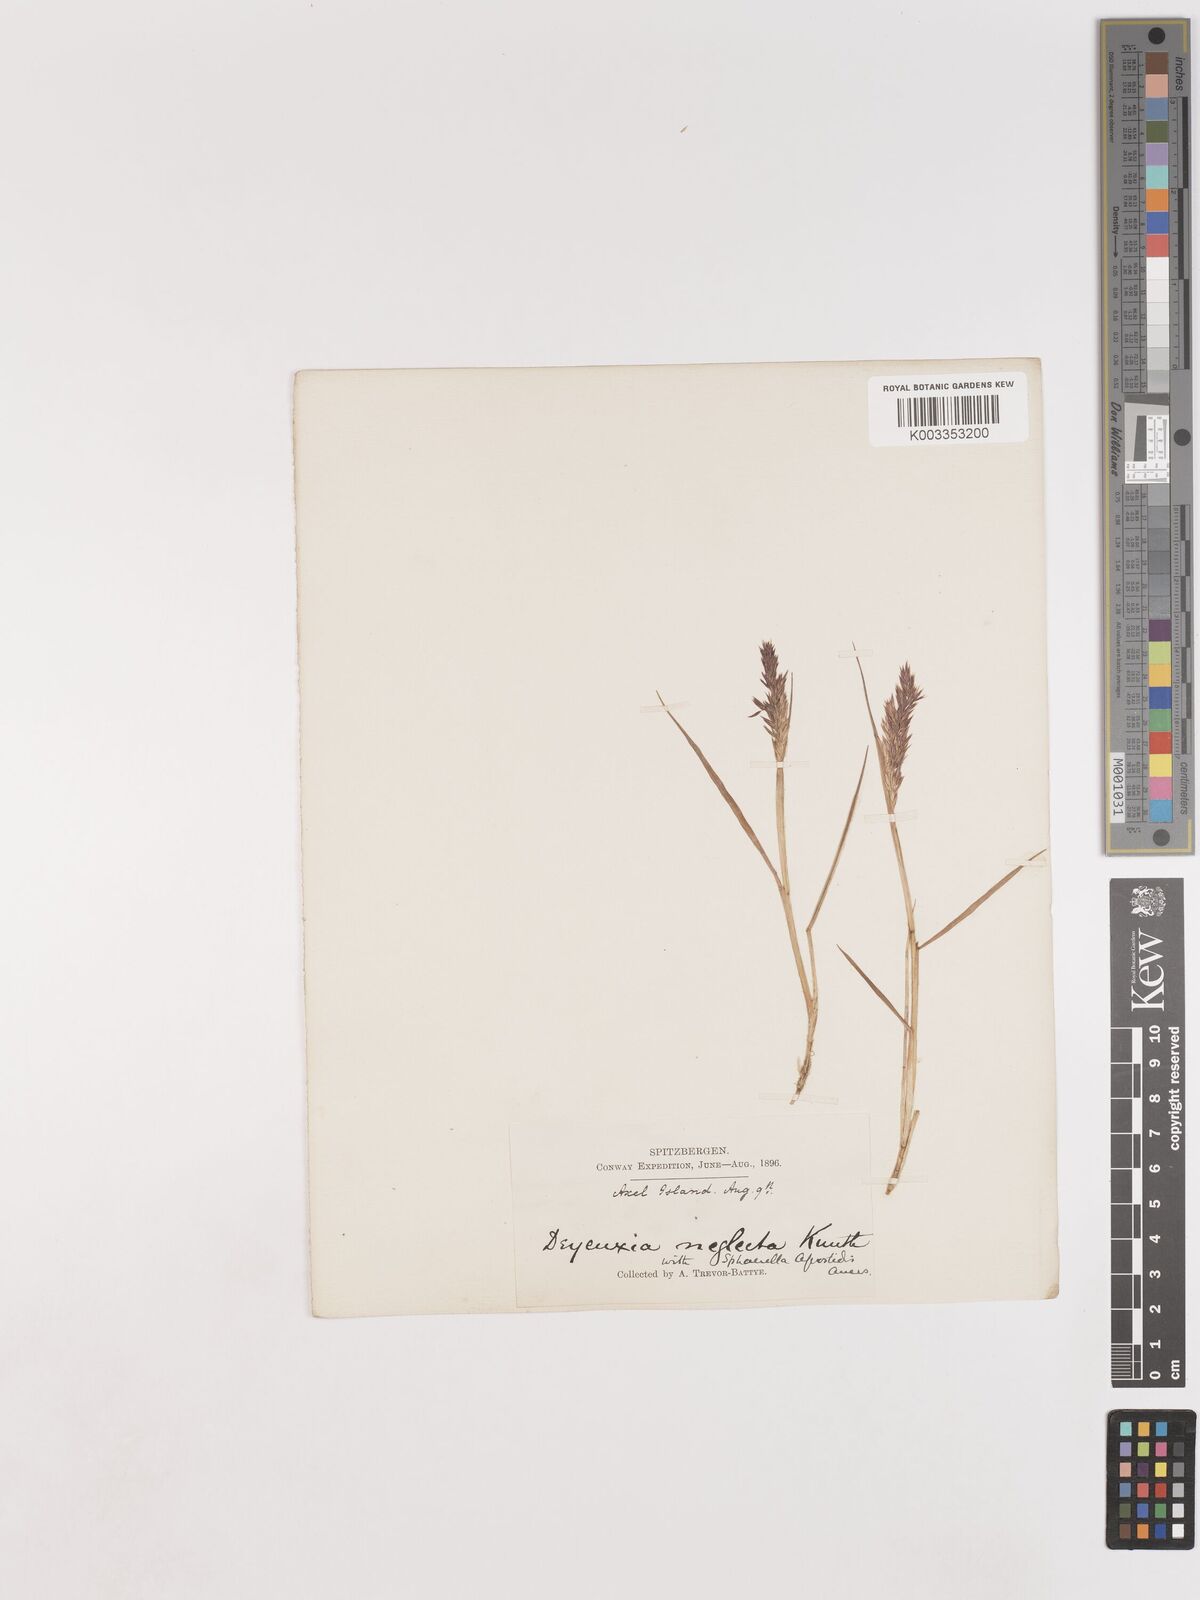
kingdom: Plantae
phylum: Tracheophyta
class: Liliopsida
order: Poales
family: Poaceae
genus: Cinnagrostis
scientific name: Cinnagrostis recta
